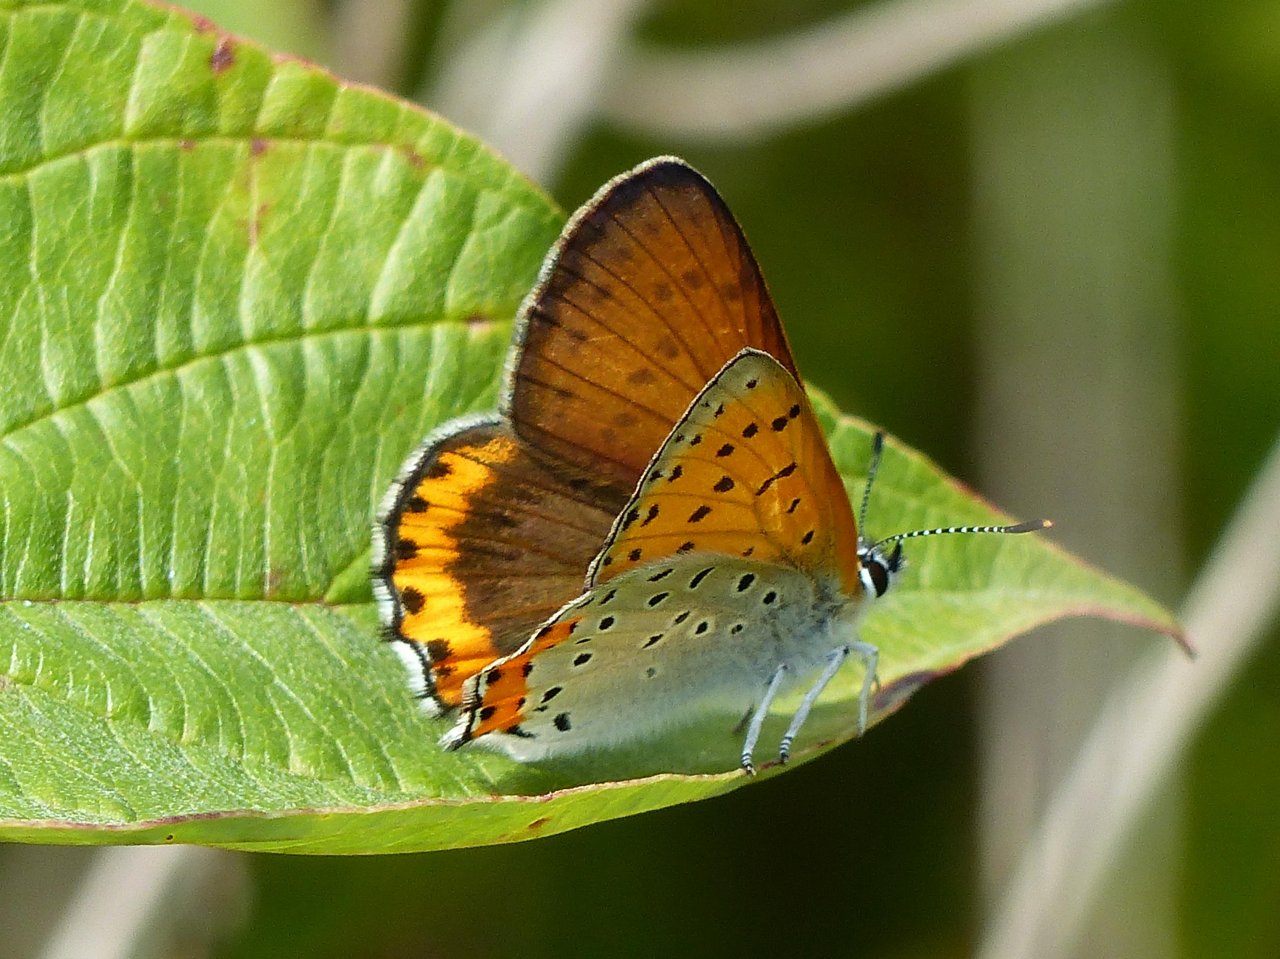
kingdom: Animalia
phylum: Arthropoda
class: Insecta
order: Lepidoptera
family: Sesiidae
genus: Sesia
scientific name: Sesia Lycaena hyllus
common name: Bronze Copper
